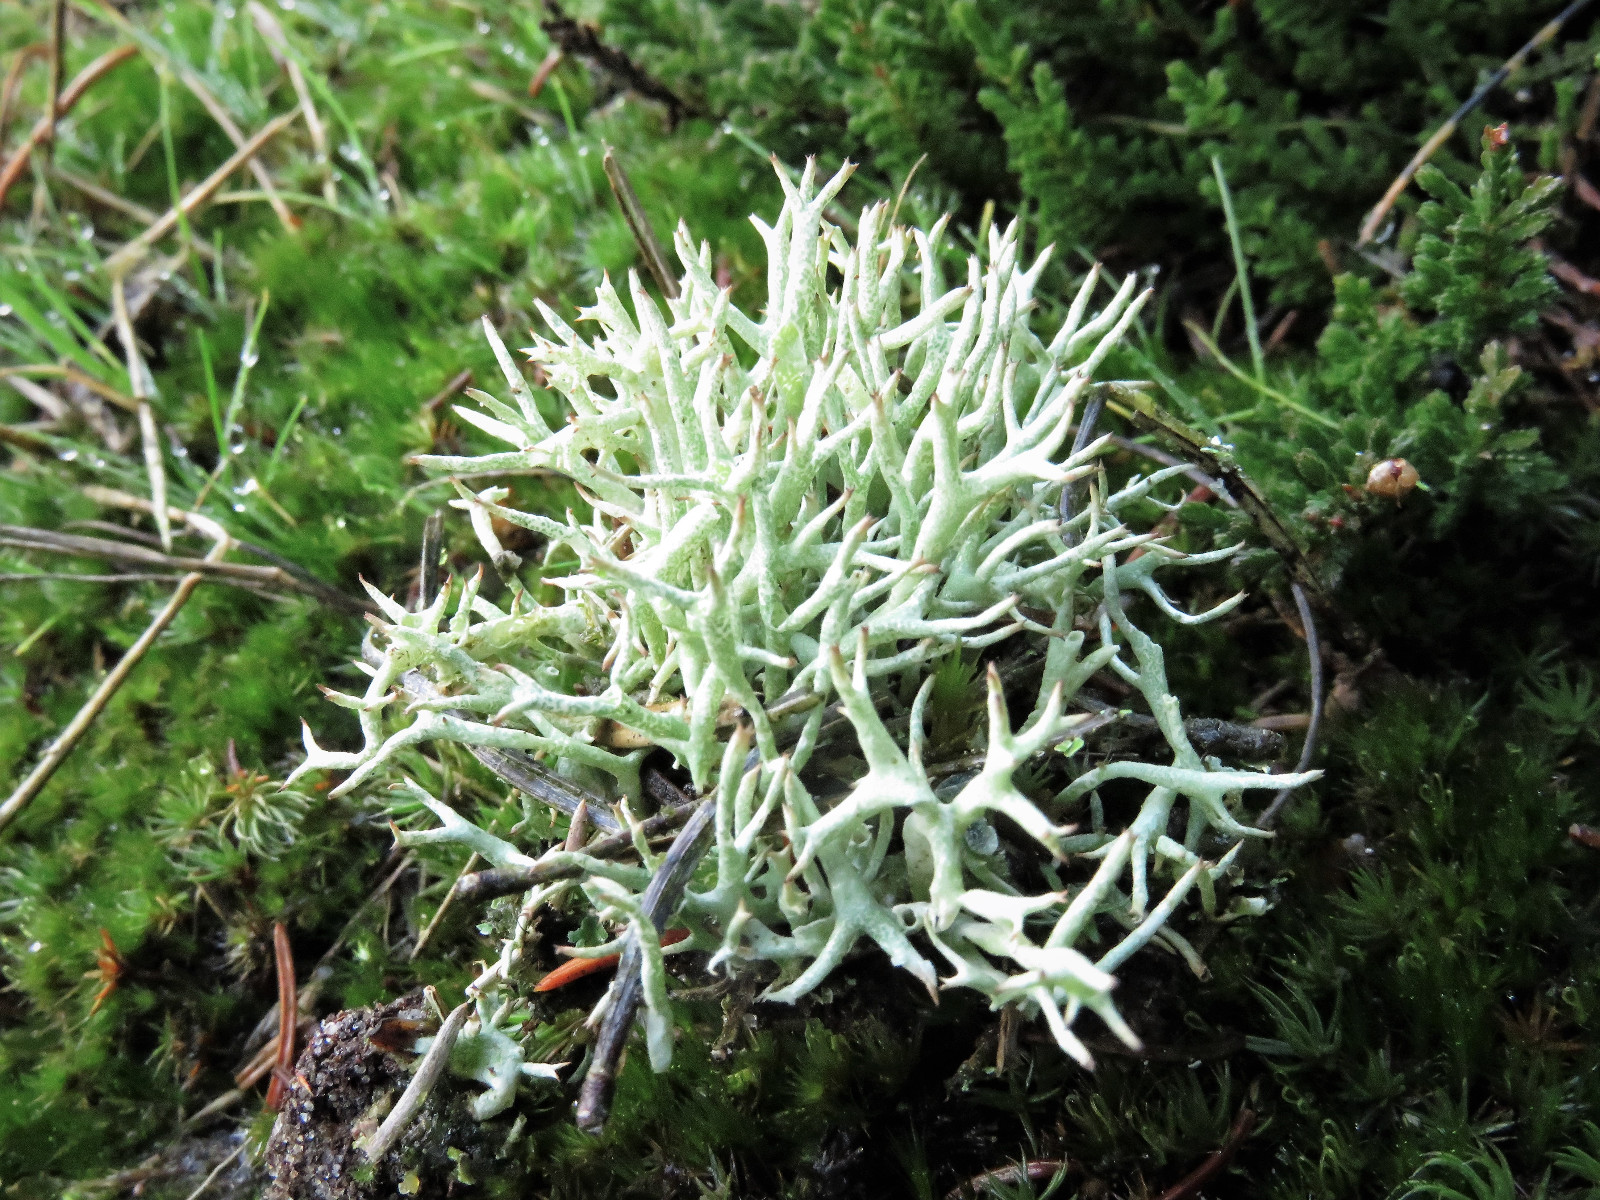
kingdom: Fungi
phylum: Ascomycota
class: Lecanoromycetes
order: Lecanorales
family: Cladoniaceae
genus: Cladonia
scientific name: Cladonia uncialis
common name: pigget bægerlav
